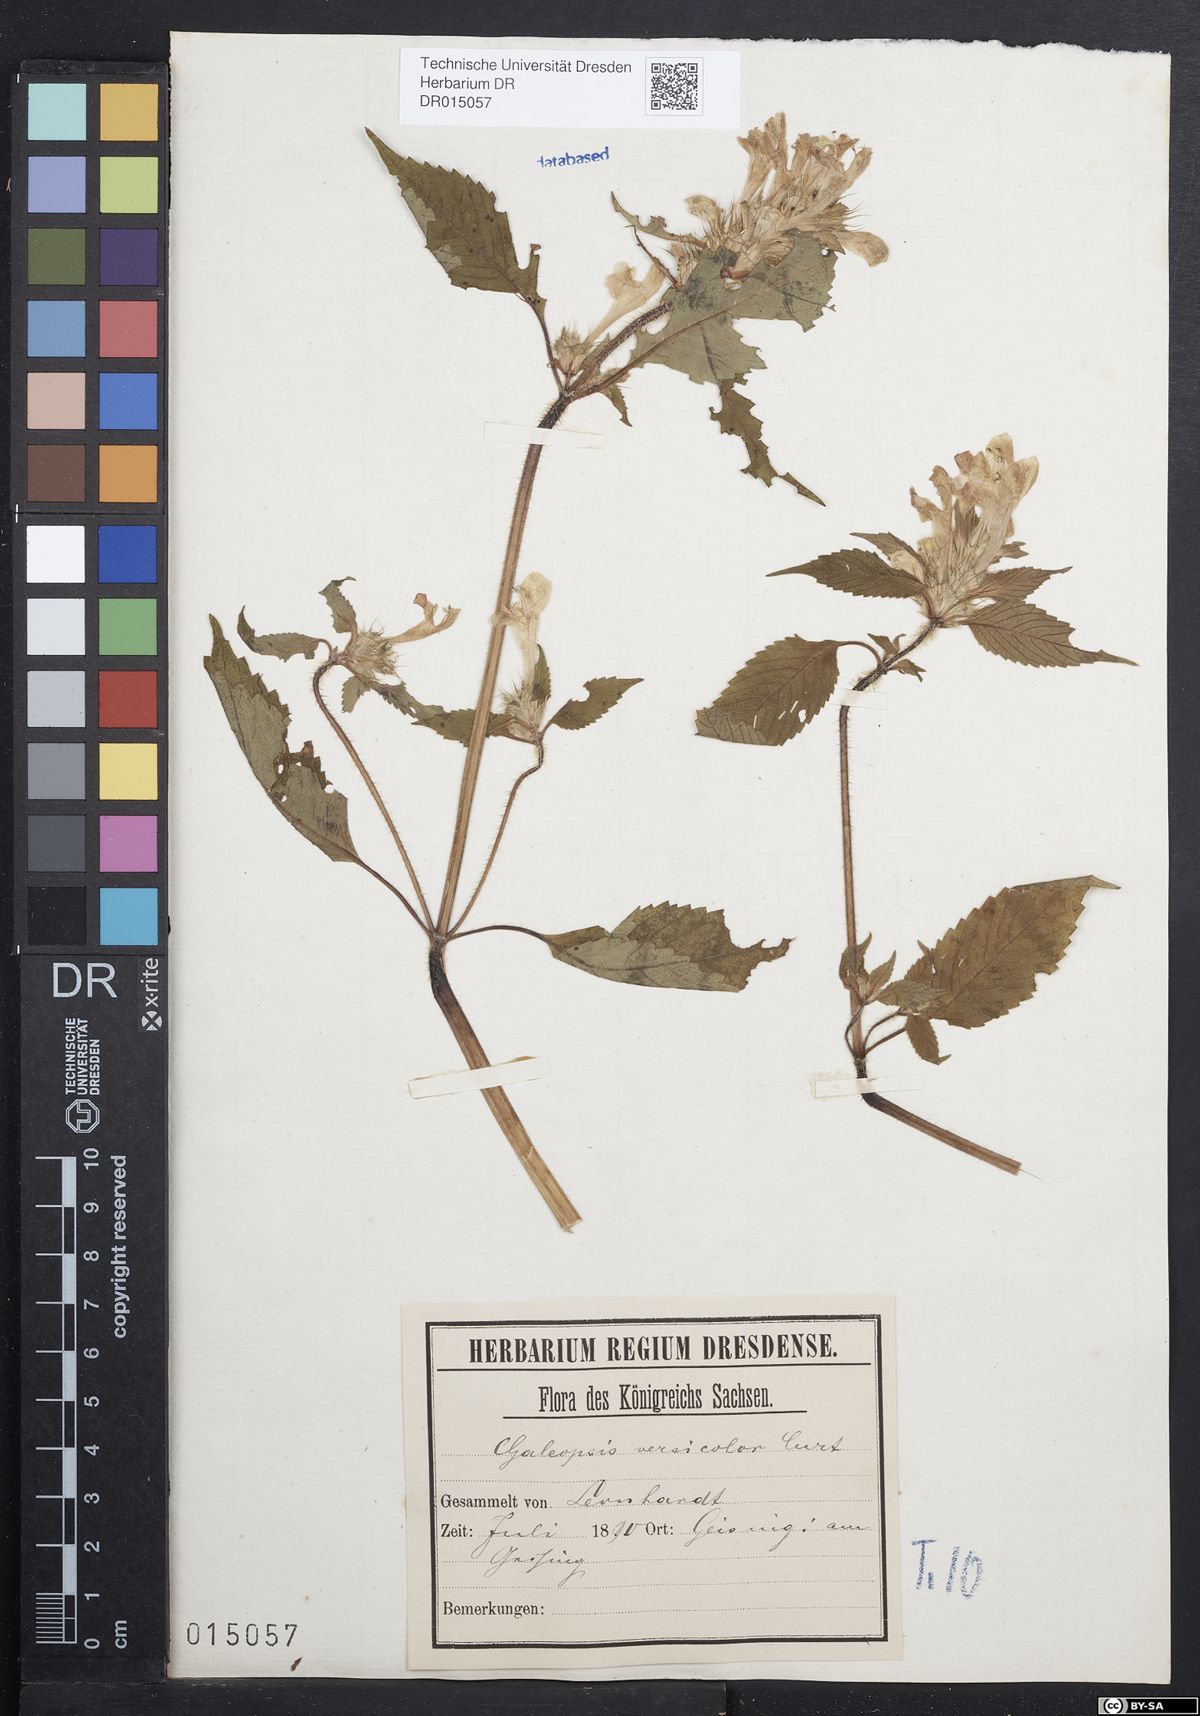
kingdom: Plantae
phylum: Tracheophyta
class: Magnoliopsida
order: Lamiales
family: Lamiaceae
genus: Galeopsis
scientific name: Galeopsis speciosa
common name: Large-flowered hemp-nettle
